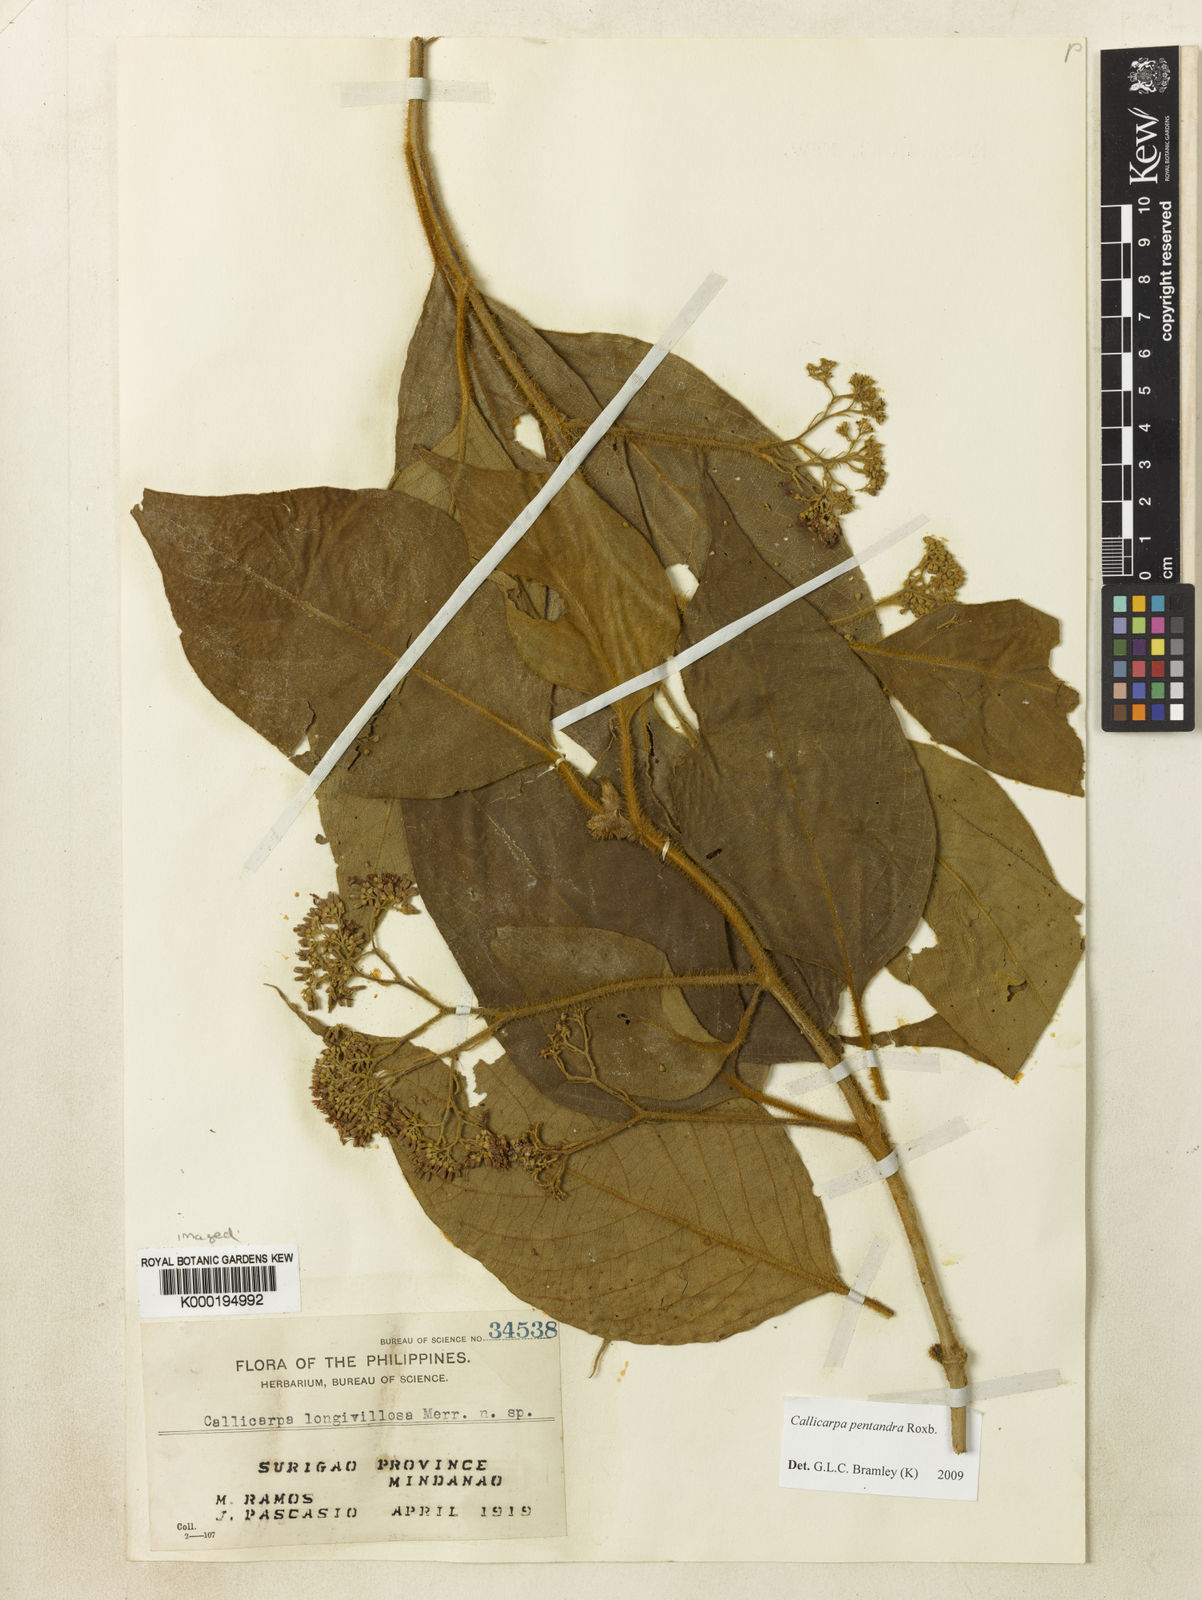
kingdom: Plantae
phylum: Tracheophyta
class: Magnoliopsida
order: Lamiales
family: Lamiaceae
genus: Callicarpa
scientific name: Callicarpa pentandra
